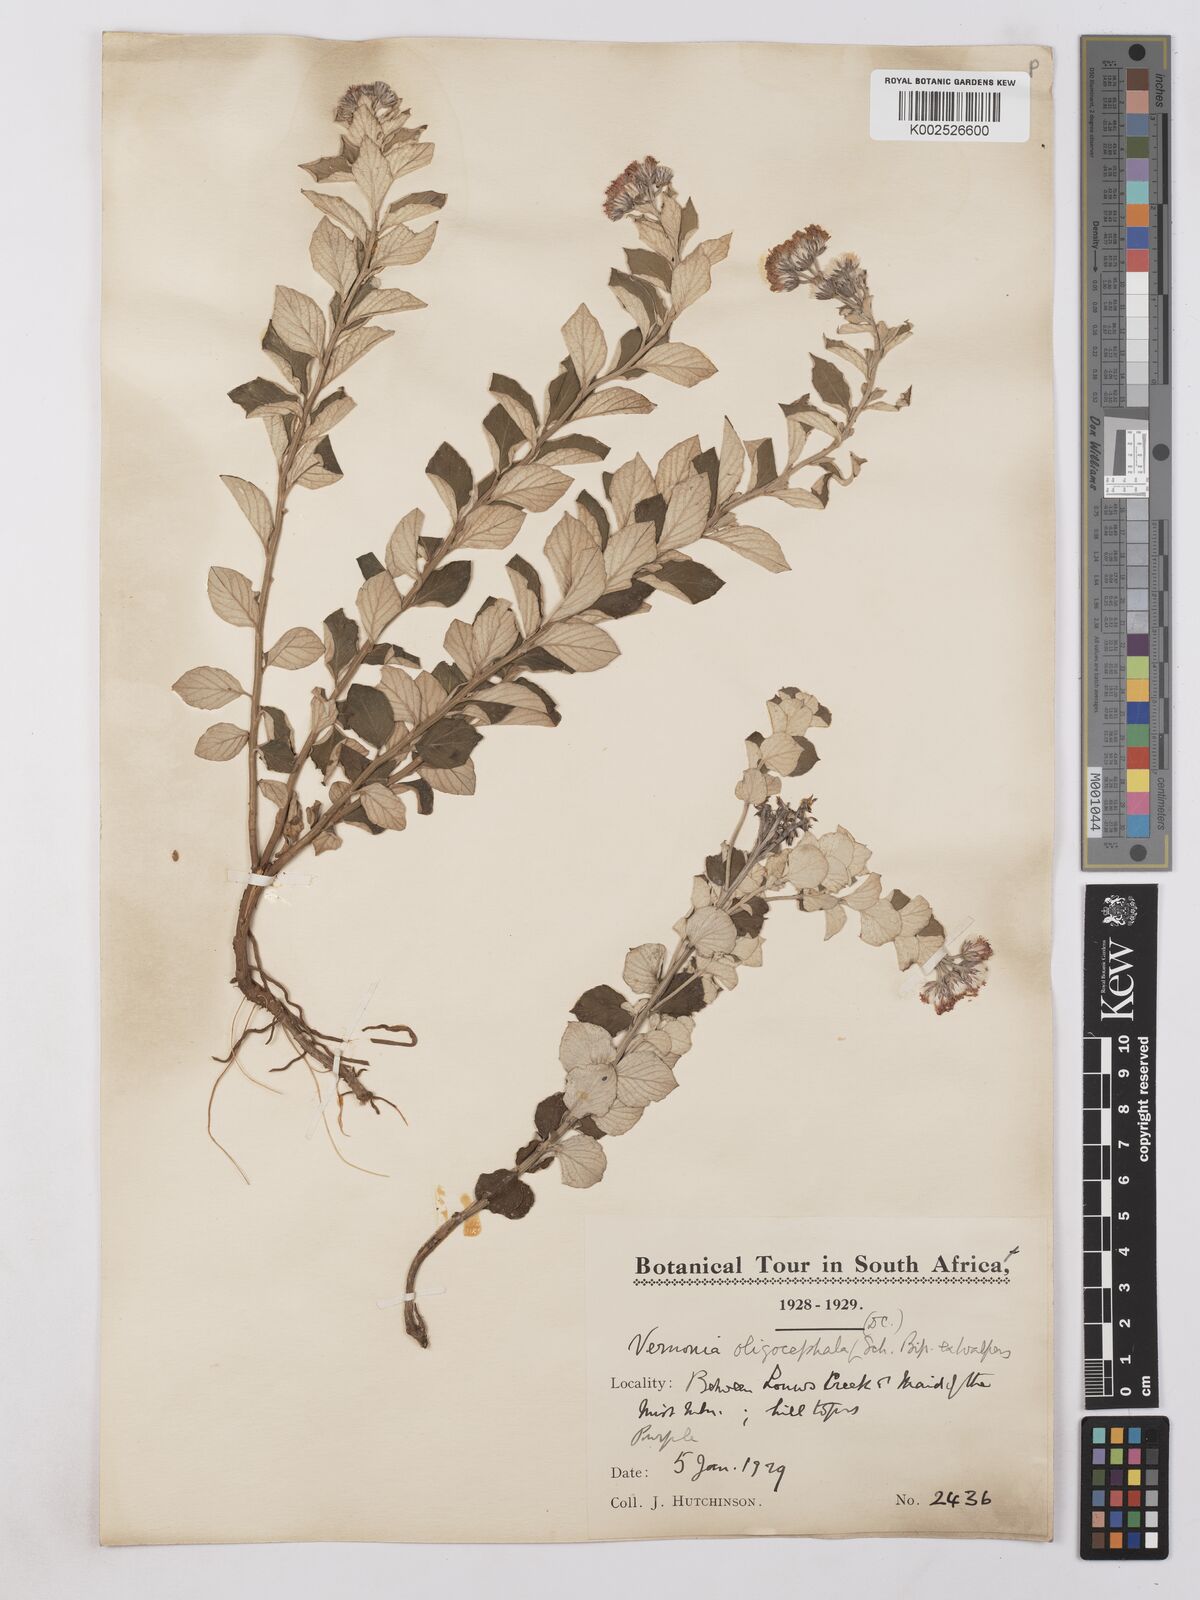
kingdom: Plantae
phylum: Tracheophyta
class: Magnoliopsida
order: Asterales
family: Asteraceae
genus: Lepidaploa
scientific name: Lepidaploa aurea
